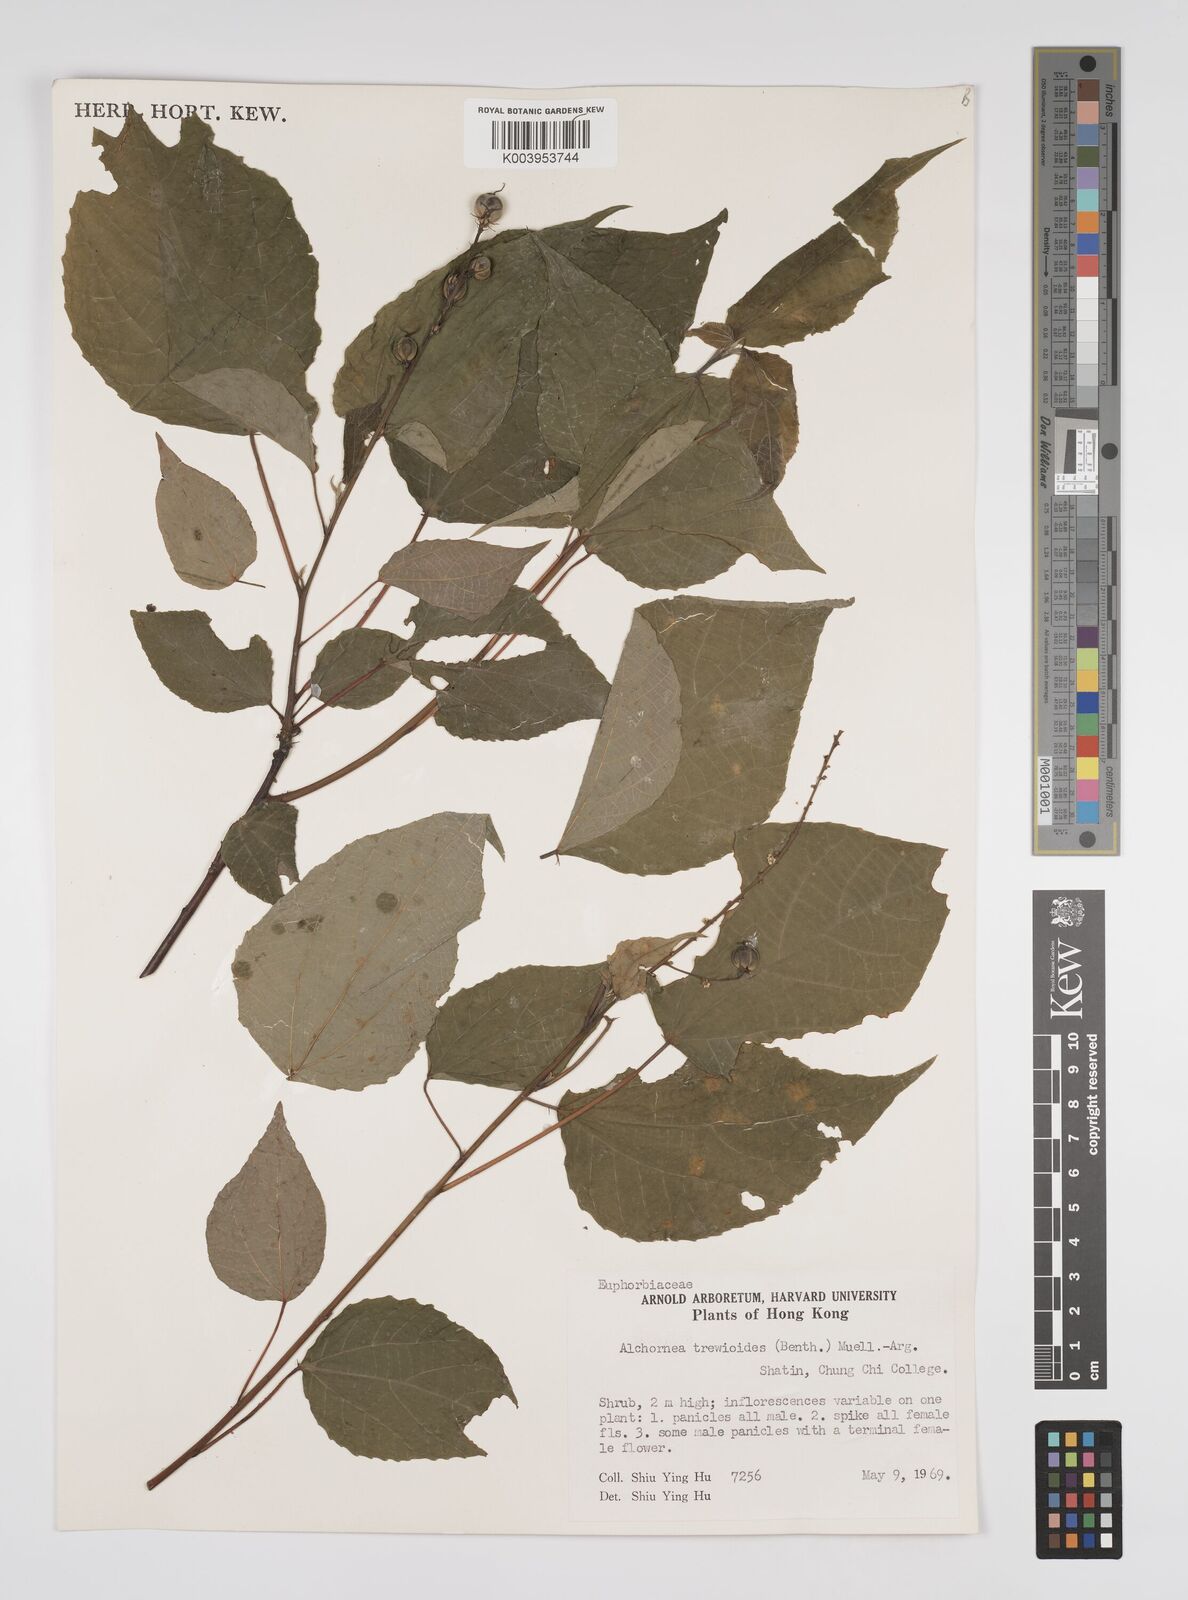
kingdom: Plantae
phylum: Tracheophyta
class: Magnoliopsida
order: Malpighiales
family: Euphorbiaceae
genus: Alchornea
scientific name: Alchornea trewioides
